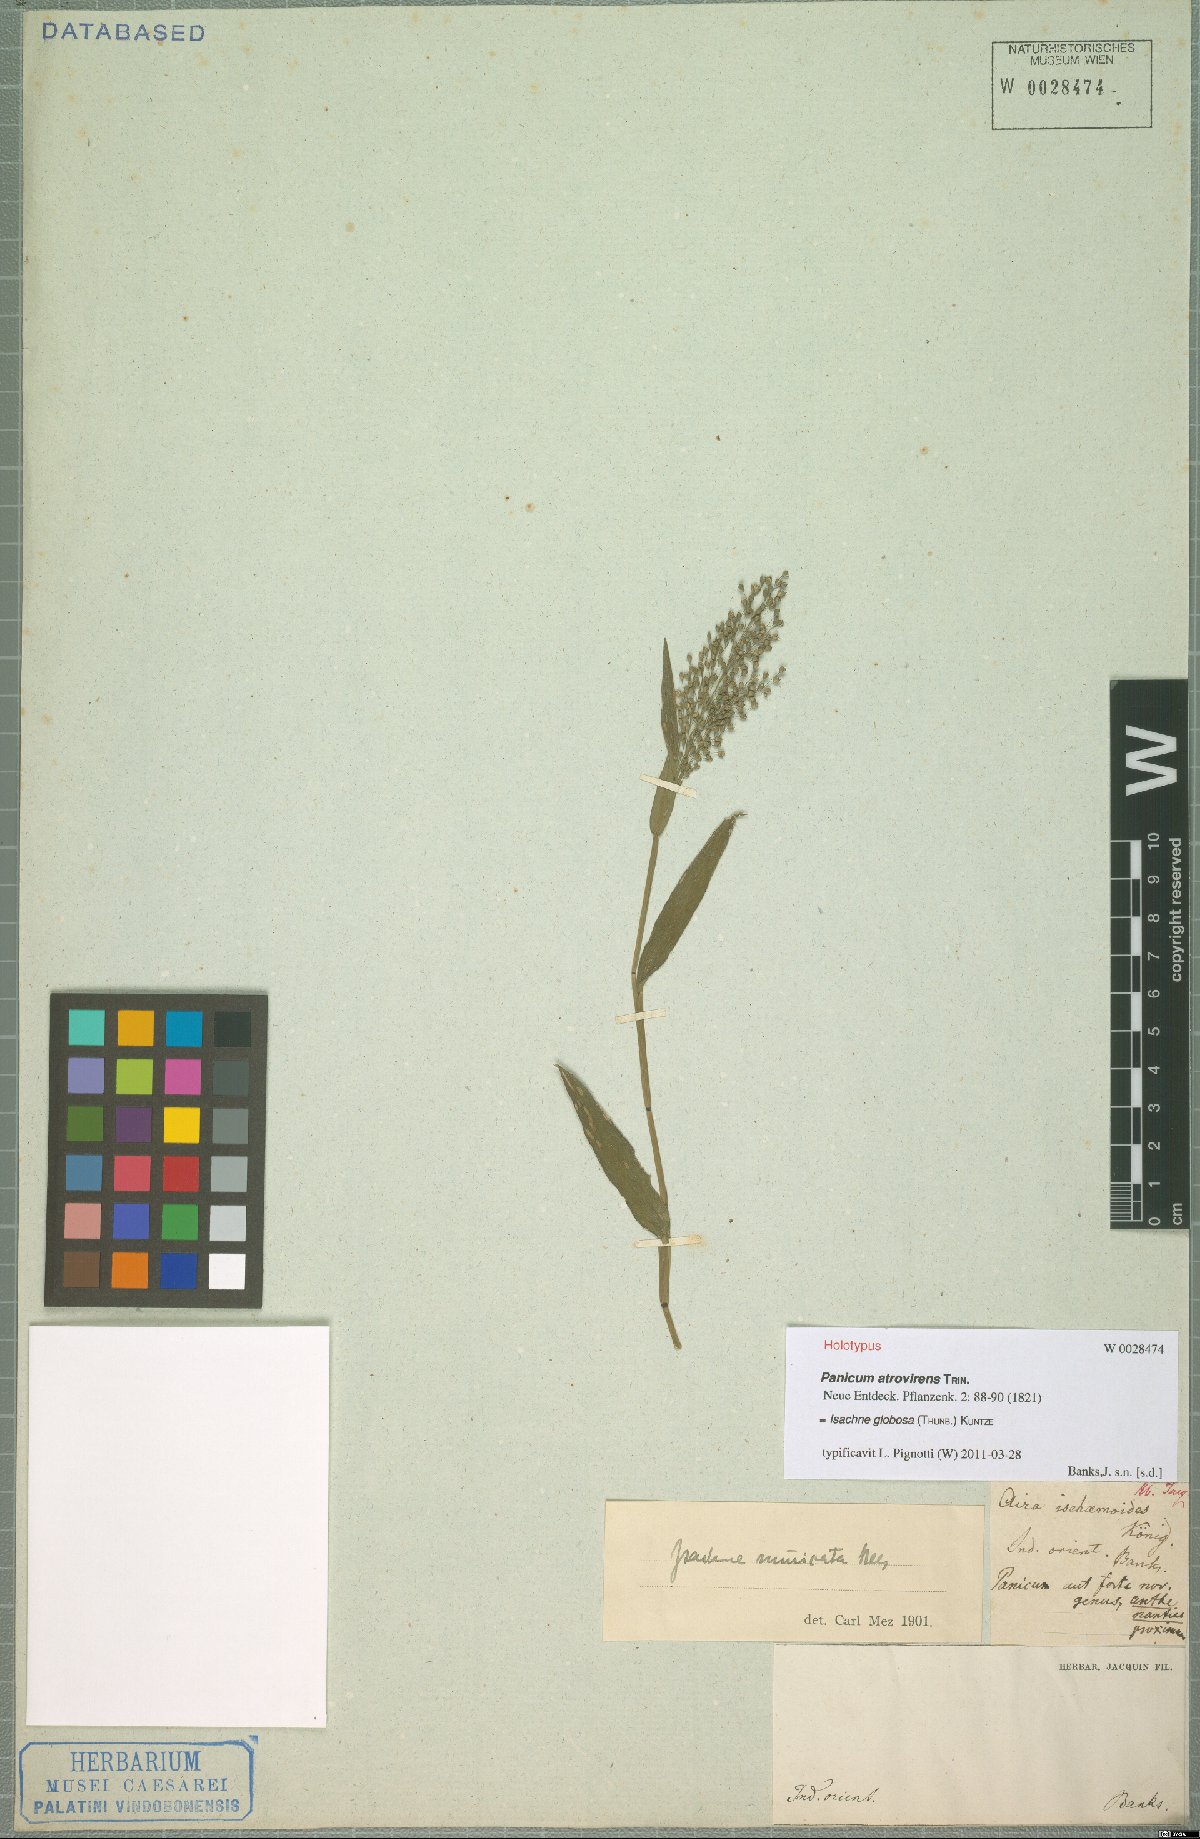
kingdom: Plantae
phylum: Tracheophyta
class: Liliopsida
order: Poales
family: Poaceae
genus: Isachne
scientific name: Isachne globosa
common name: Swamp millet
